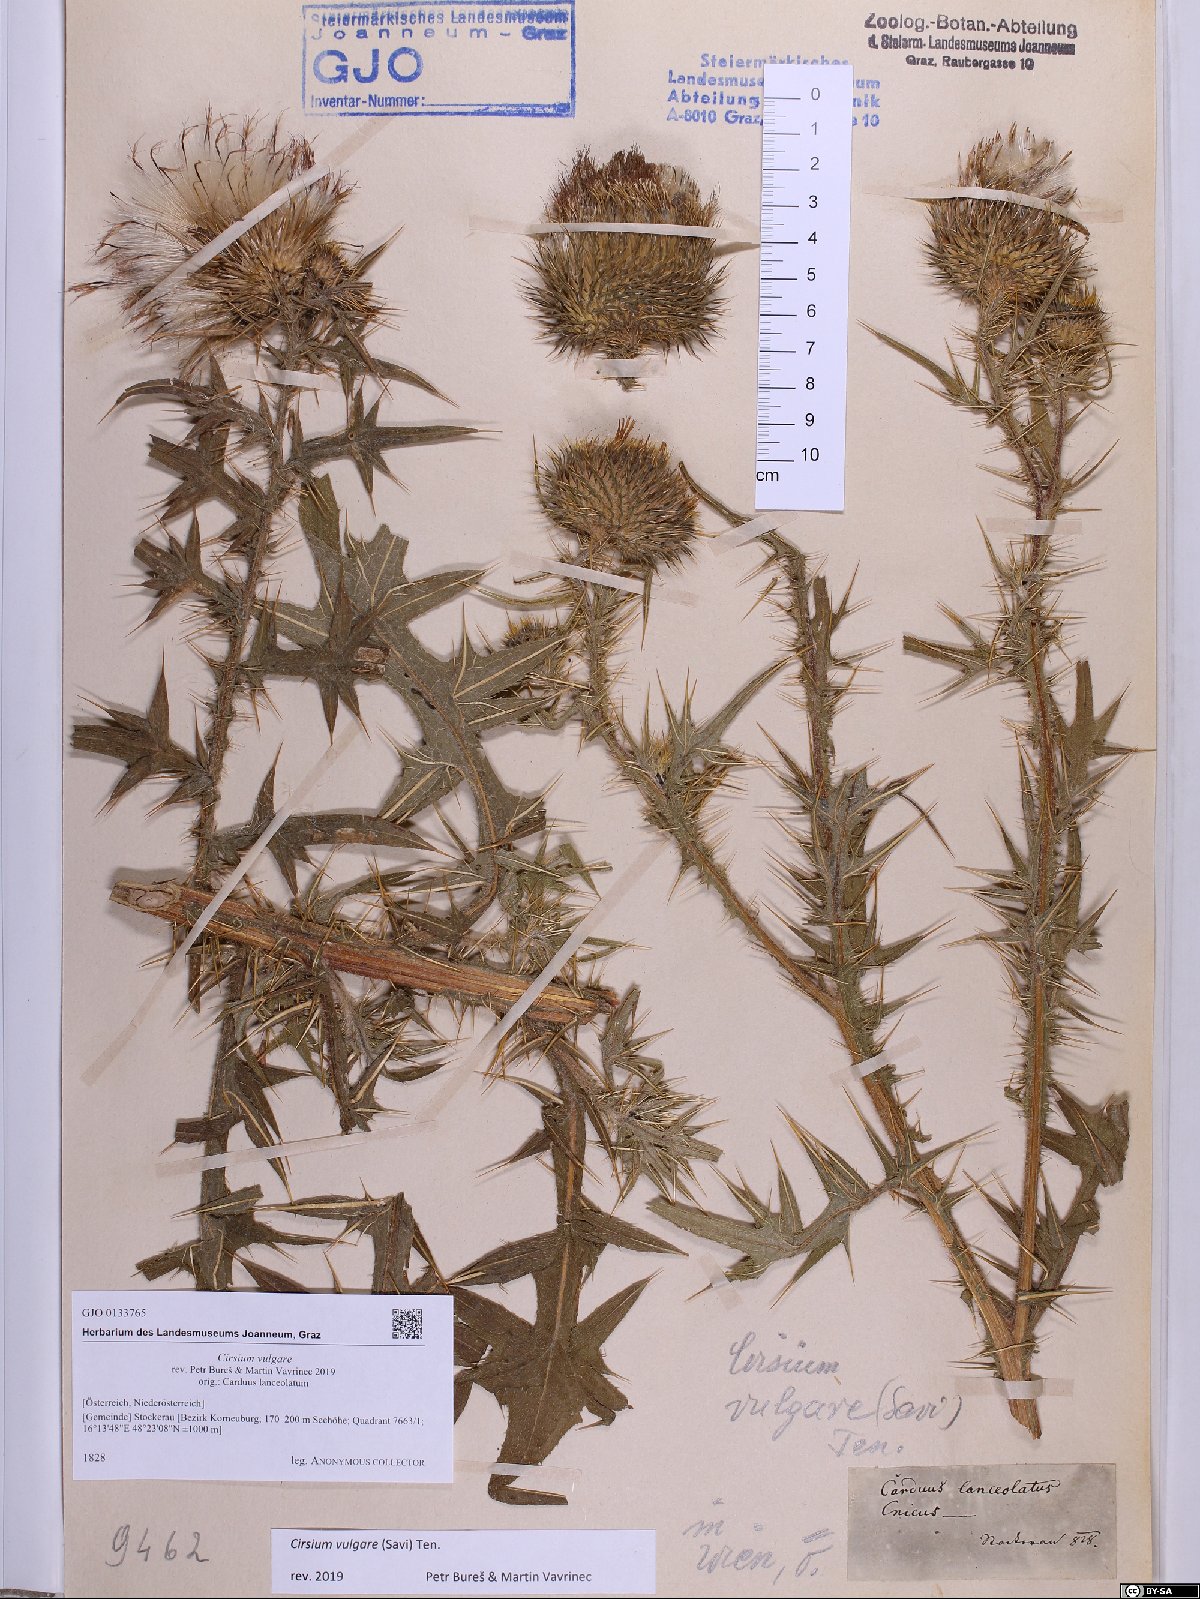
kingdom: Plantae
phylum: Tracheophyta
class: Magnoliopsida
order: Asterales
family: Asteraceae
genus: Cirsium
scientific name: Cirsium vulgare
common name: Bull thistle
